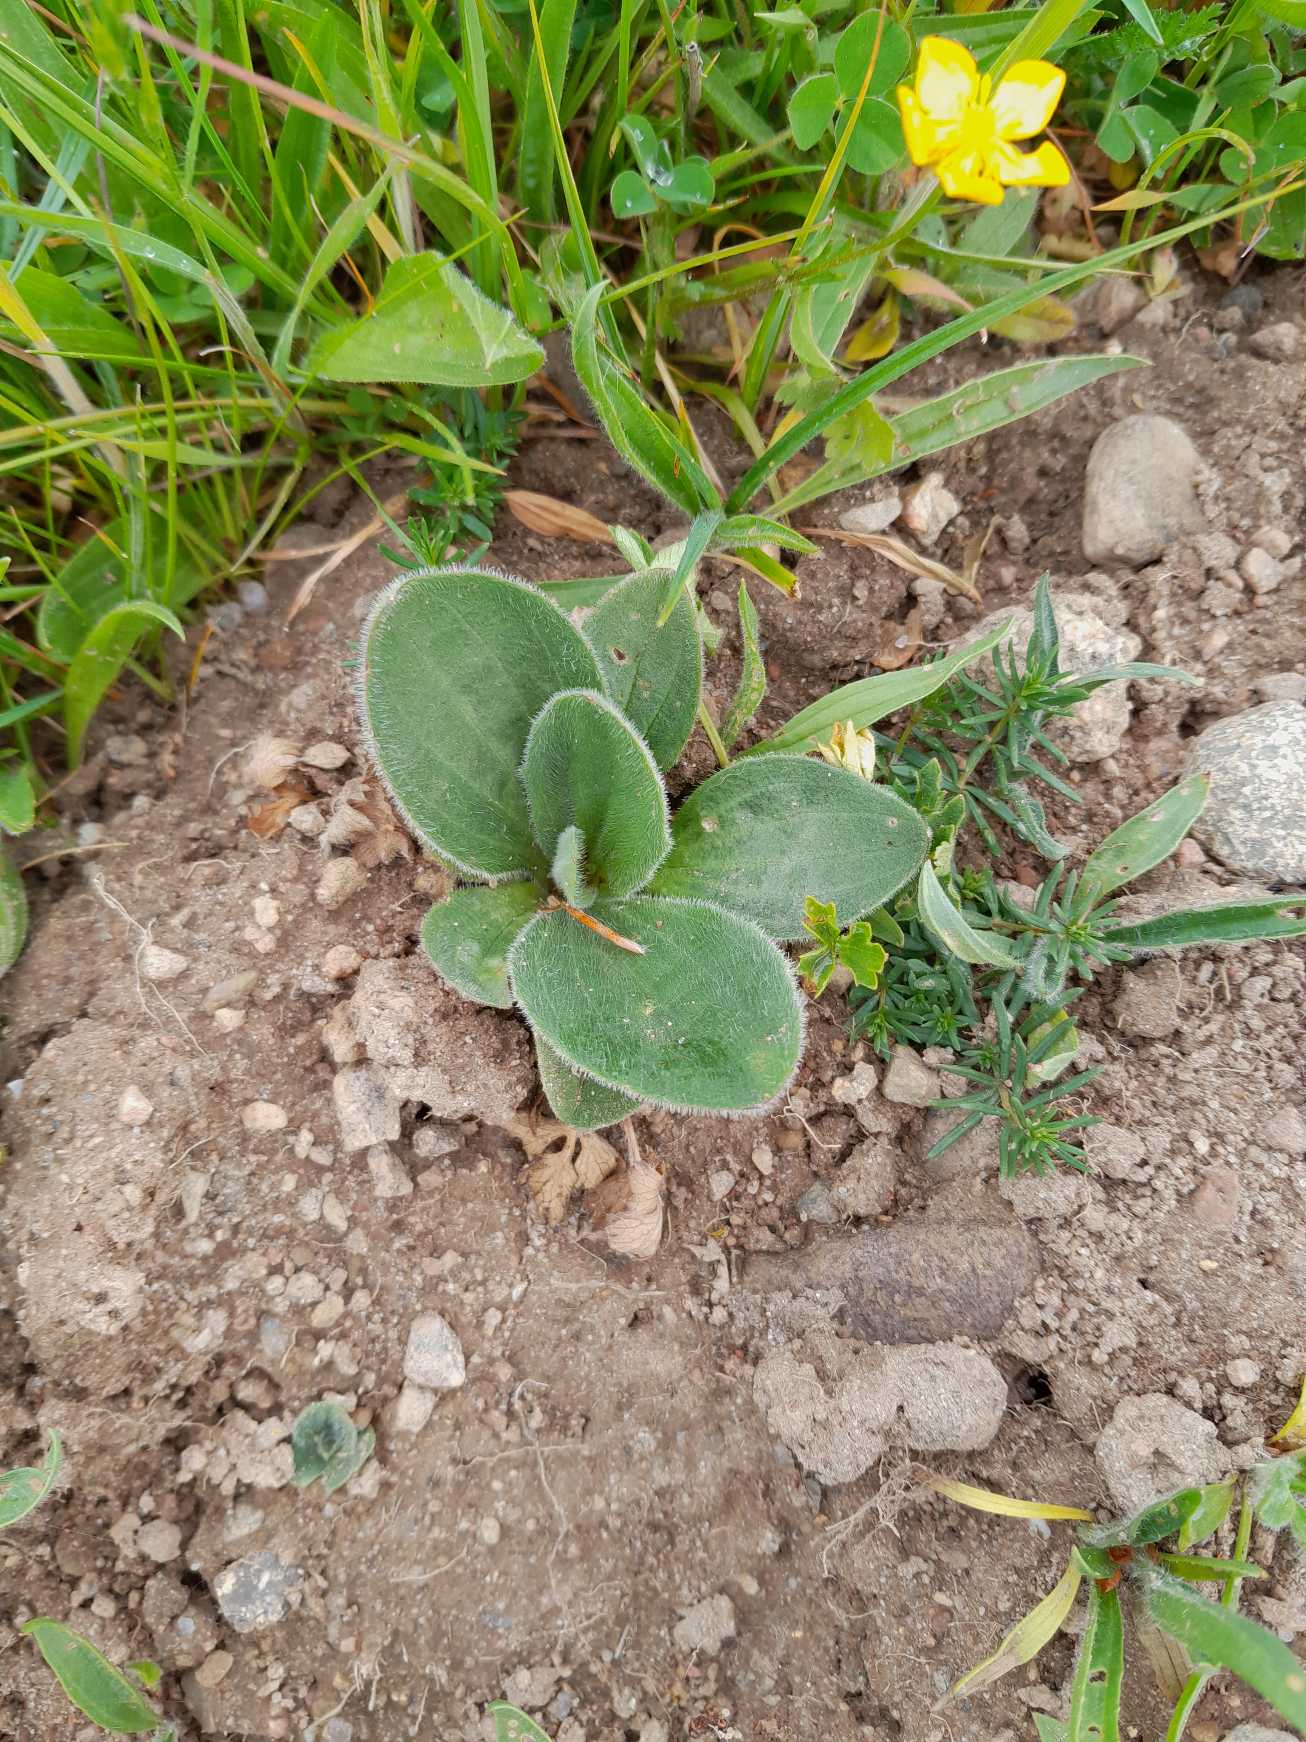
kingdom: Plantae
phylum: Tracheophyta
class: Magnoliopsida
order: Lamiales
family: Plantaginaceae
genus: Plantago
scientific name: Plantago media
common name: Dunet vejbred
